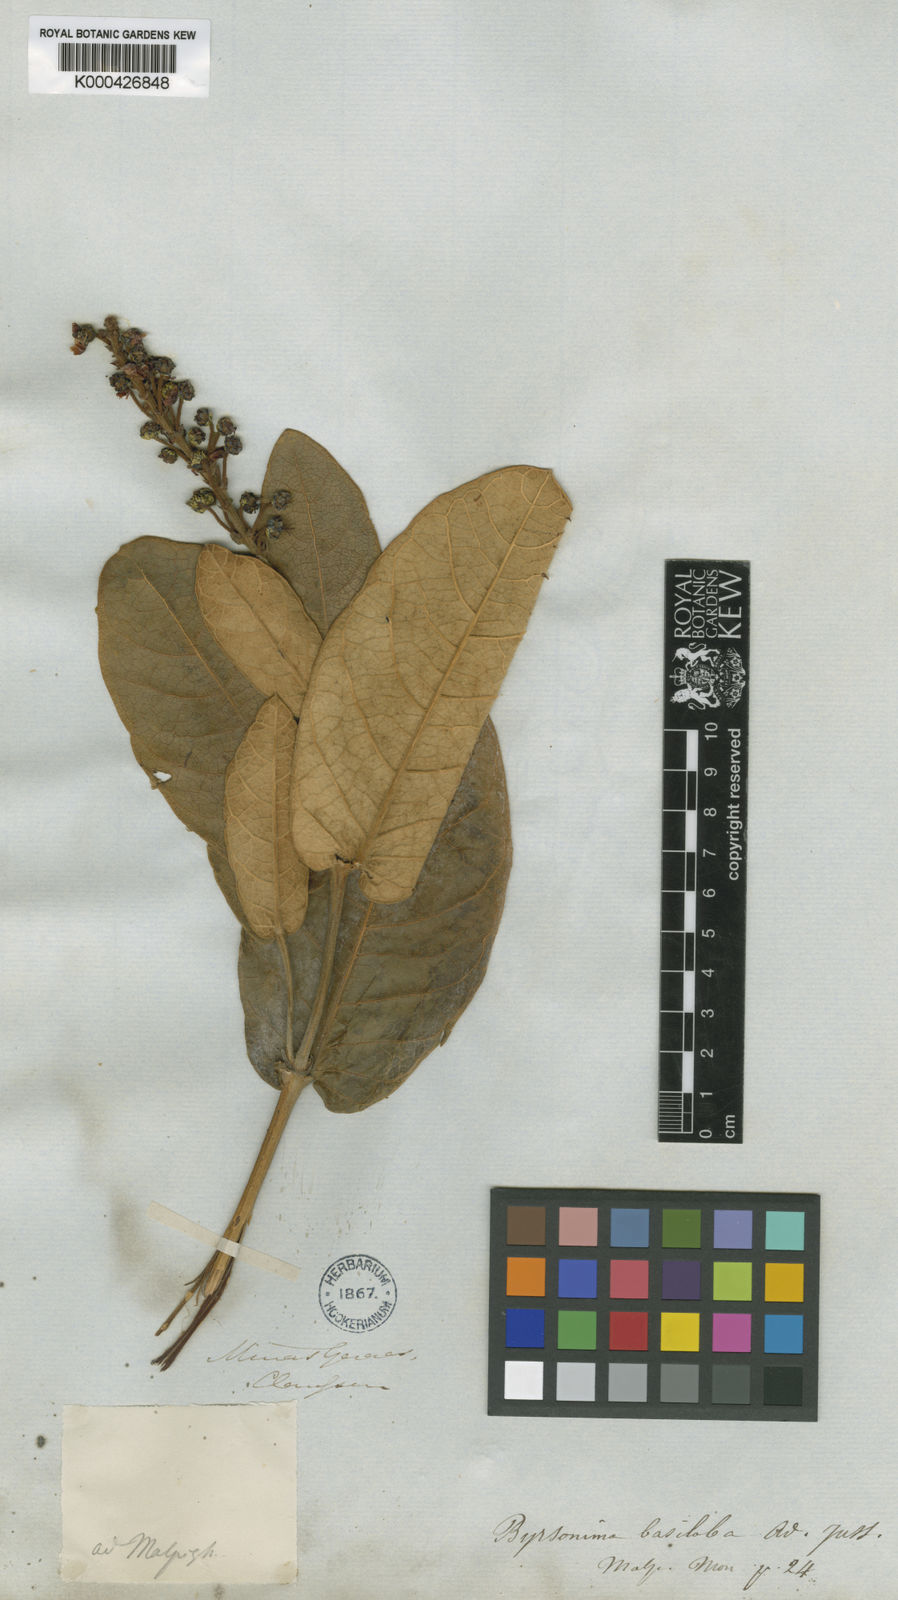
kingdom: Plantae
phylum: Tracheophyta
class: Magnoliopsida
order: Malpighiales
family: Malpighiaceae
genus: Byrsonima
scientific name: Byrsonima basiloba
